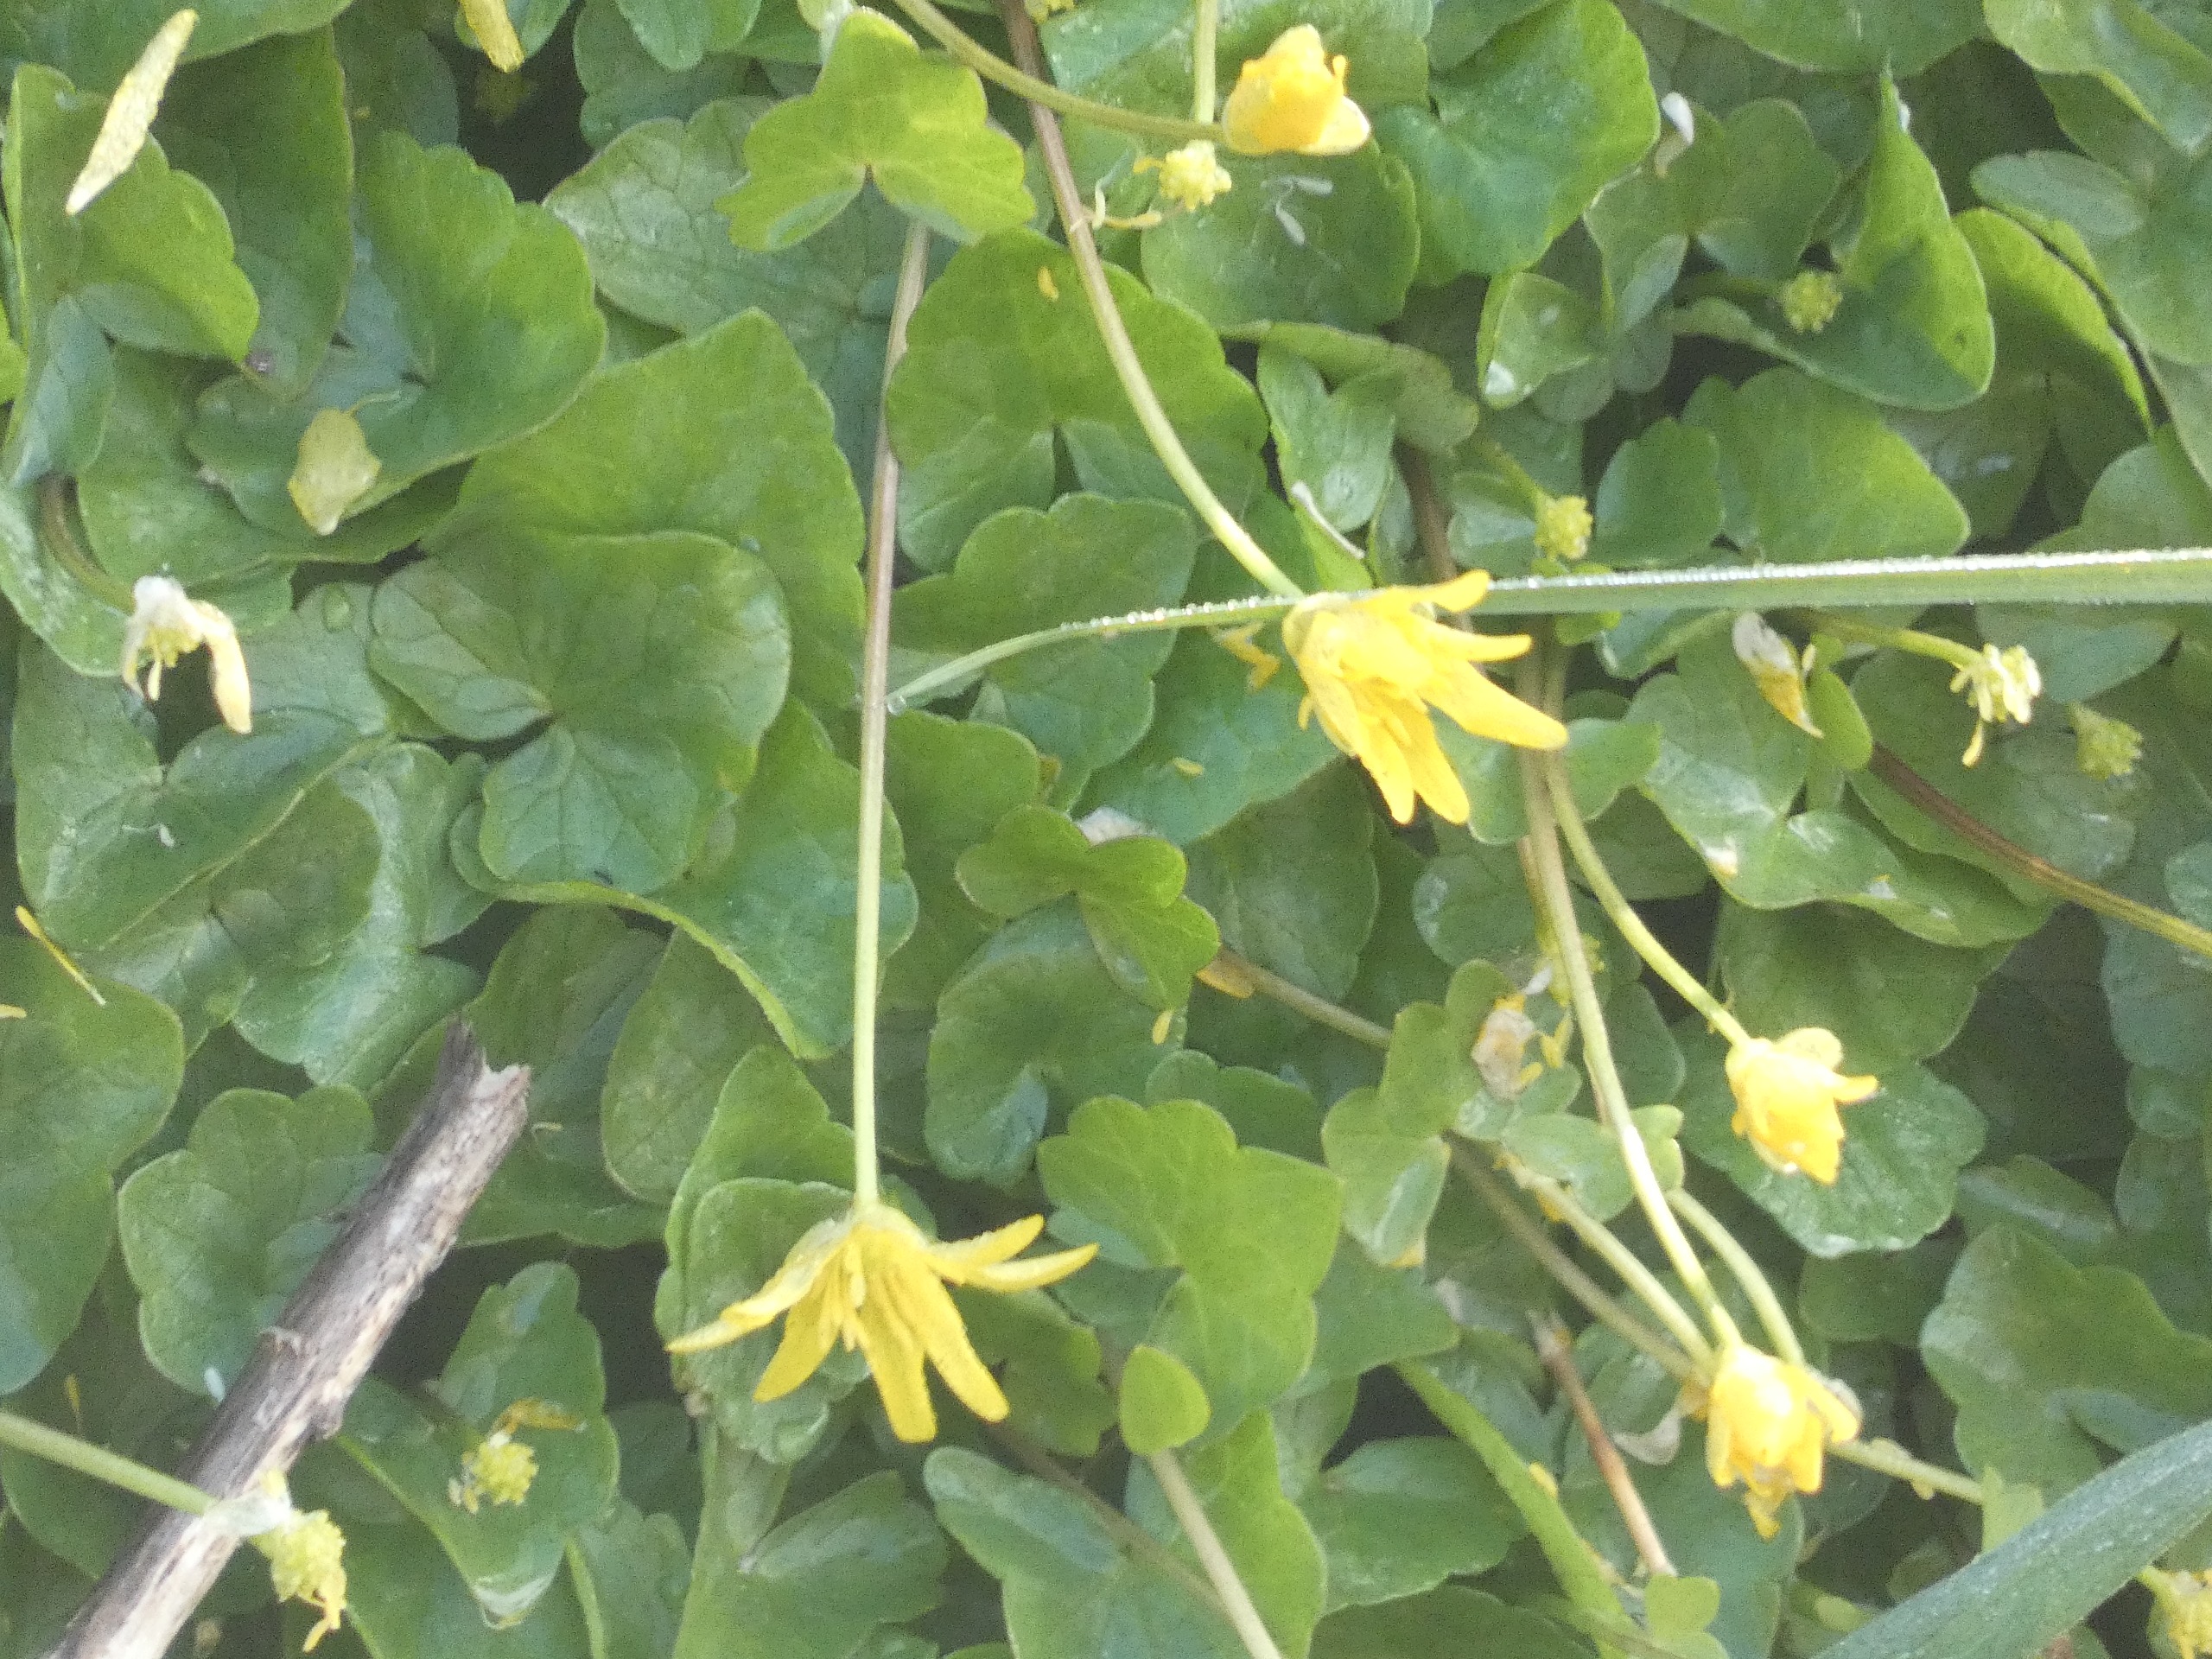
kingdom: Plantae
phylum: Tracheophyta
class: Magnoliopsida
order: Ranunculales
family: Ranunculaceae
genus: Ficaria
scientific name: Ficaria verna
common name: Vorterod
